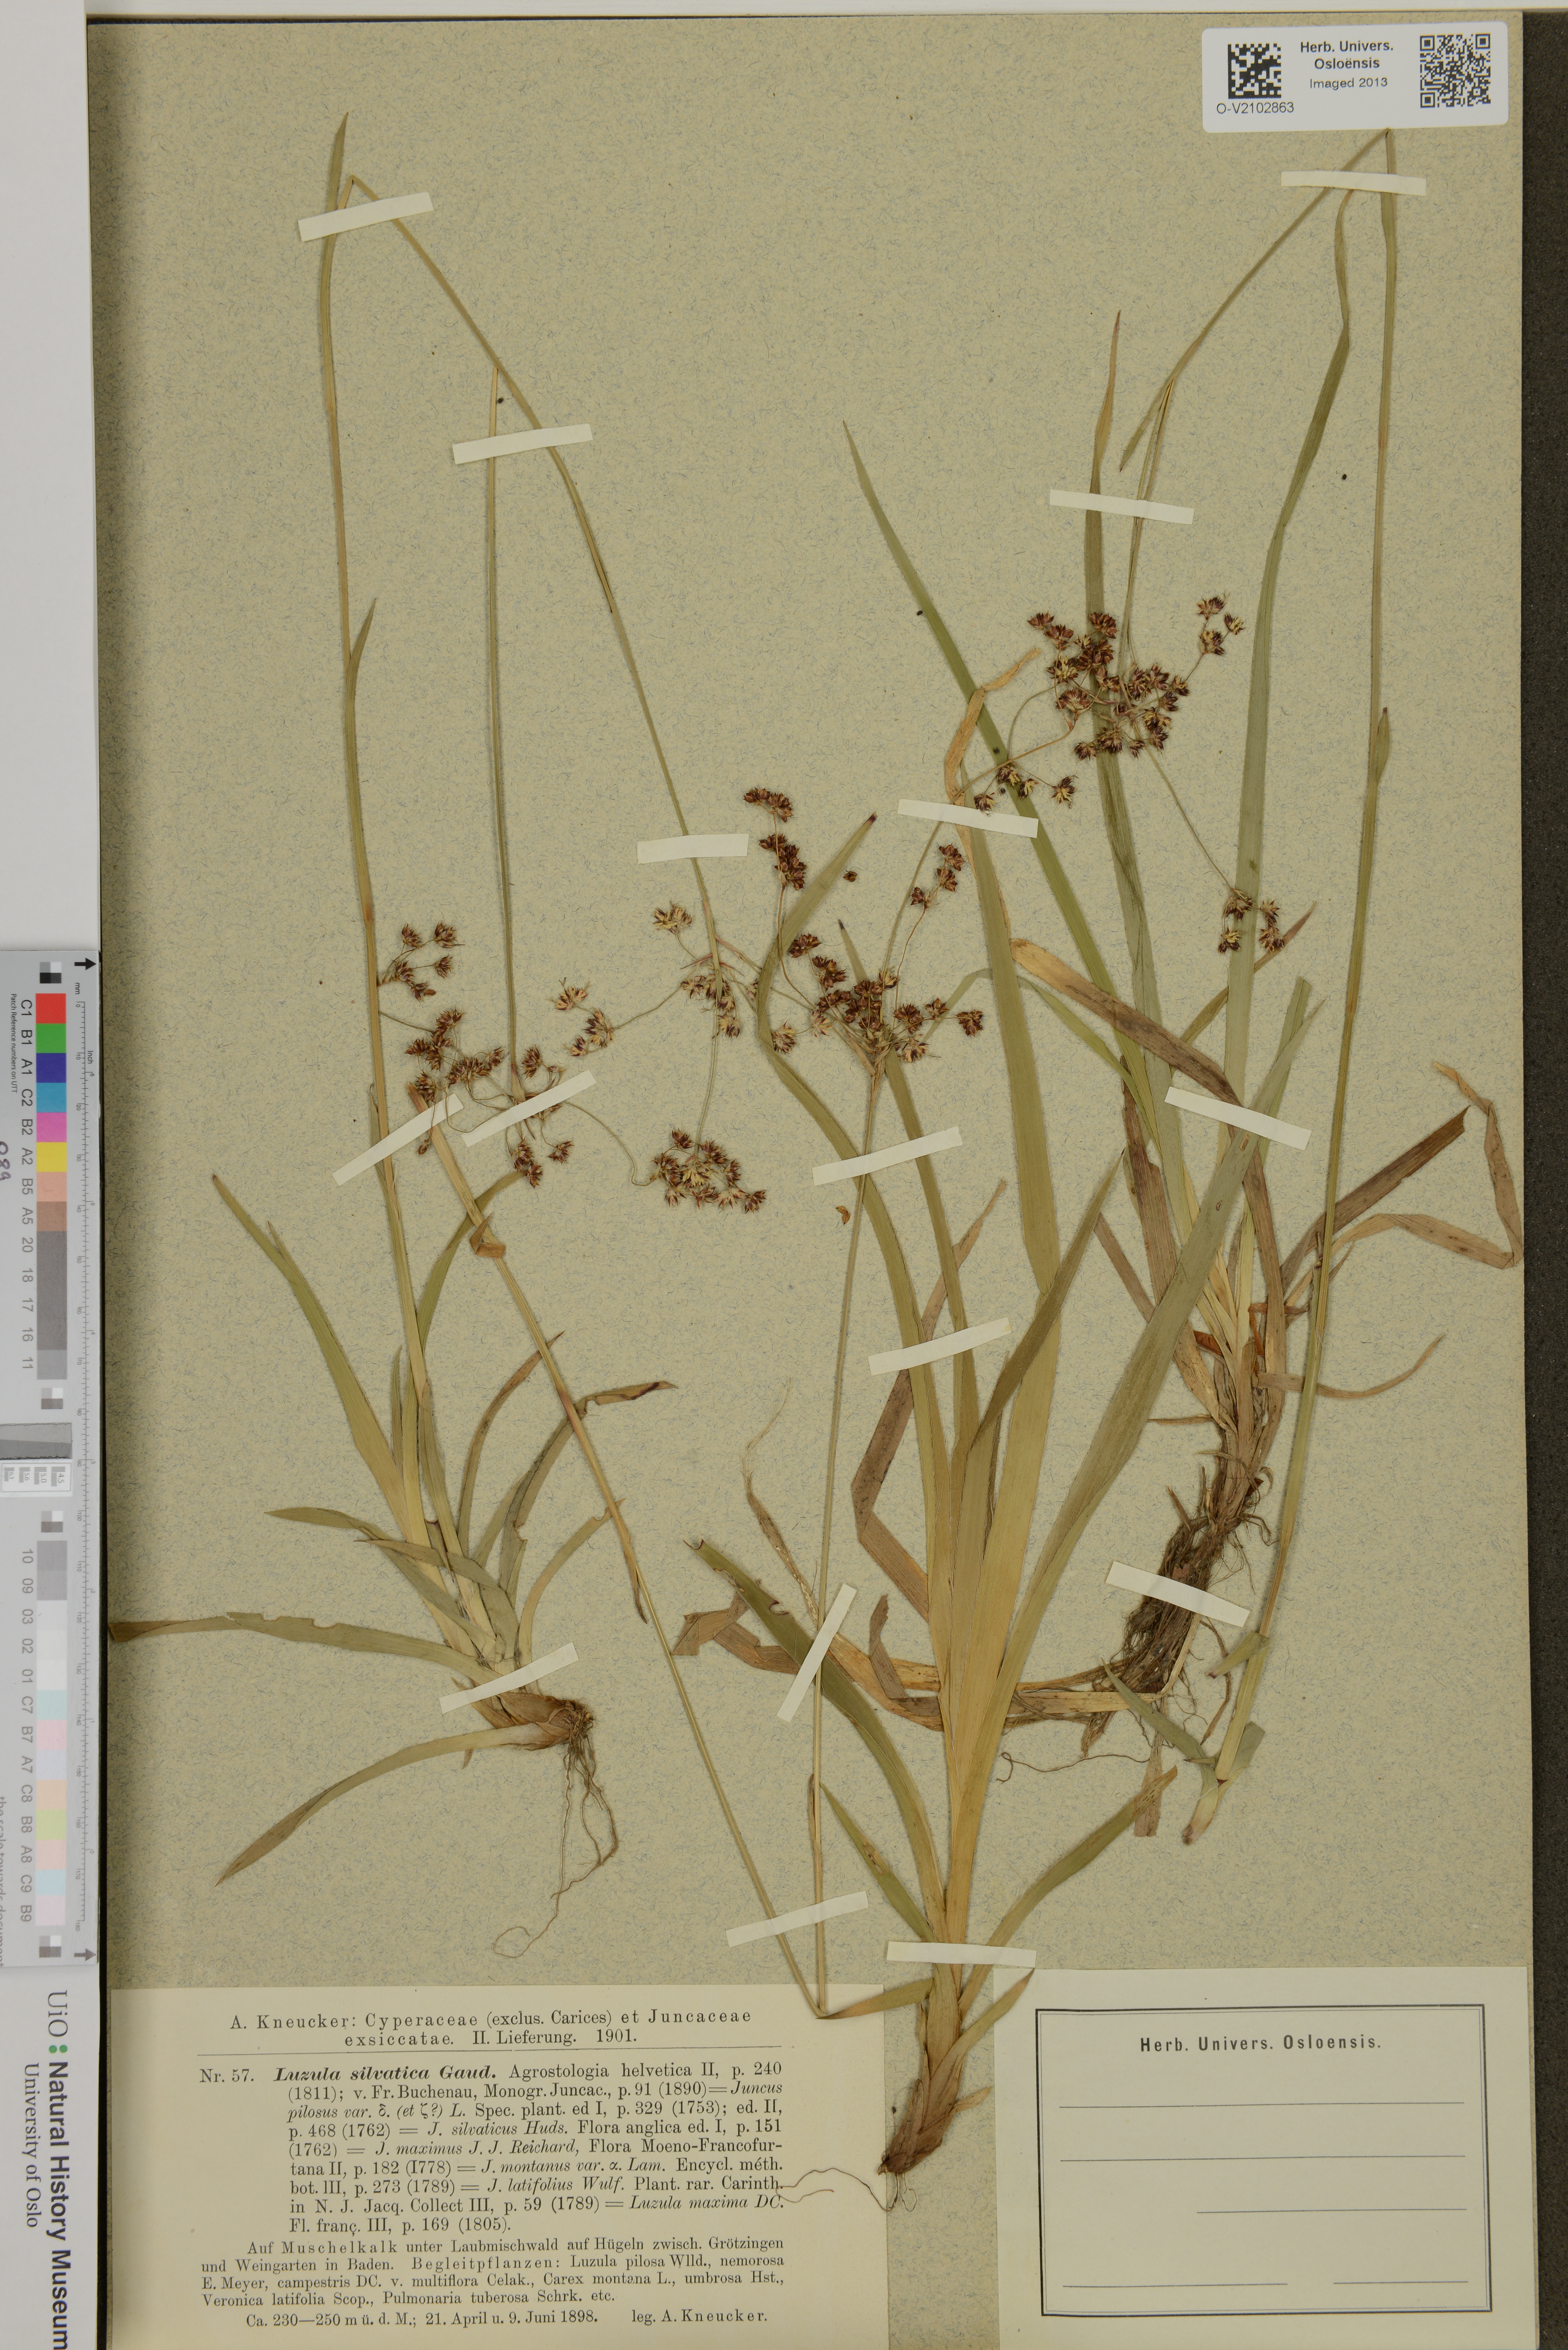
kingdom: Plantae
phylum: Tracheophyta
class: Liliopsida
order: Poales
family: Juncaceae
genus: Luzula
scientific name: Luzula sylvatica
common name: Great wood-rush
